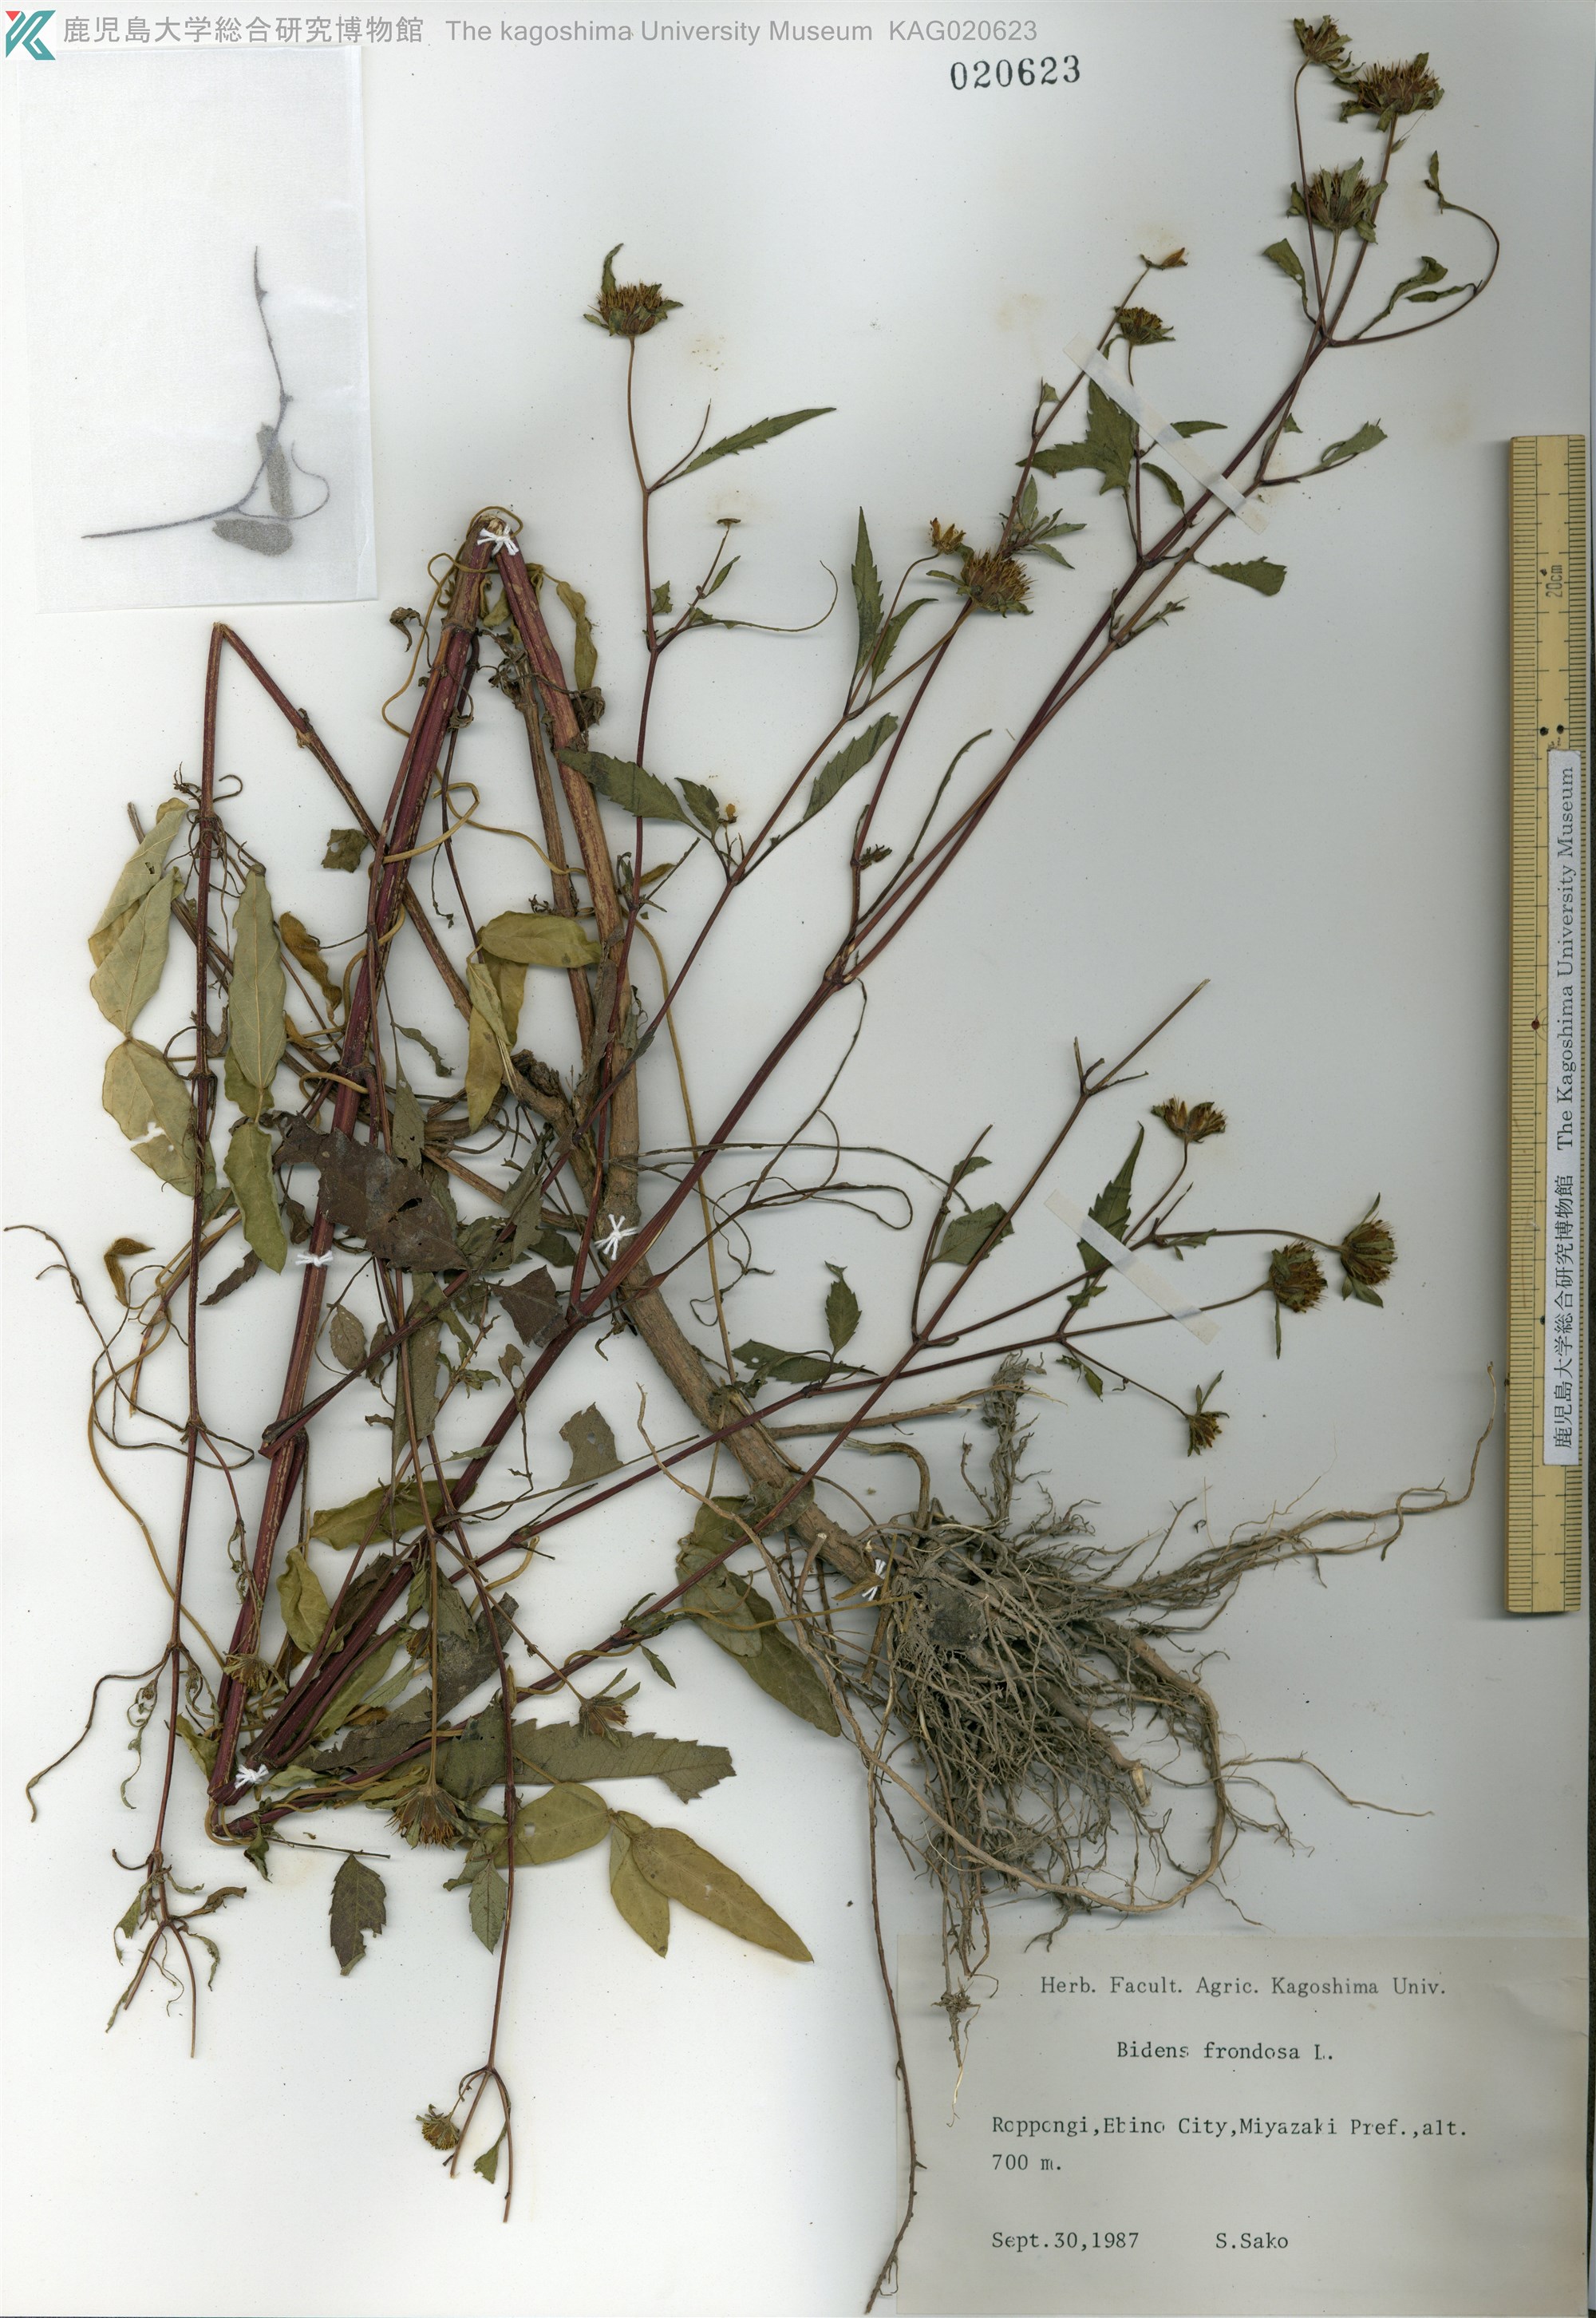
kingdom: Plantae
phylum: Tracheophyta
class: Magnoliopsida
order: Asterales
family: Asteraceae
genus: Bidens
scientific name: Bidens frondosa
